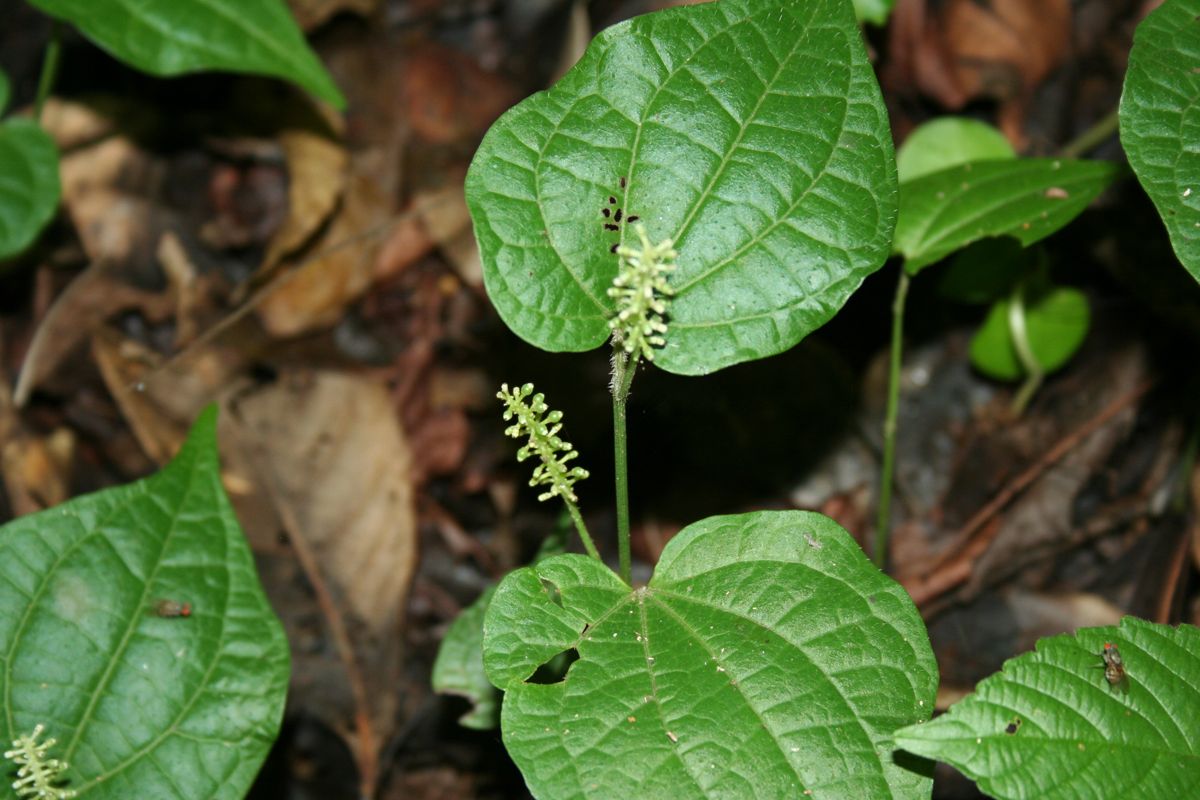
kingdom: Plantae
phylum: Tracheophyta
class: Magnoliopsida
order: Piperales
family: Piperaceae
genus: Piper
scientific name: Piper guazacapanense
